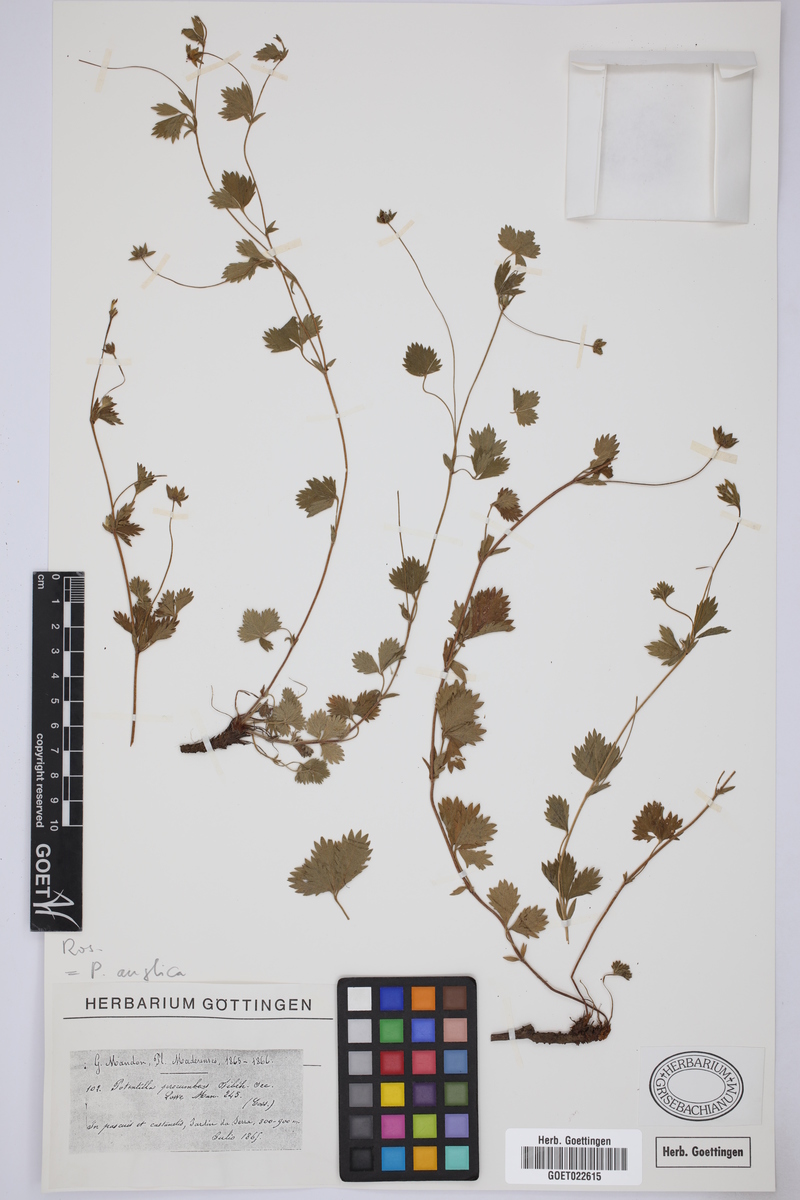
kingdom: Plantae
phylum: Tracheophyta
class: Magnoliopsida
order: Rosales
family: Rosaceae
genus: Potentilla
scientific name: Potentilla anglica
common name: Trailing tormentil
